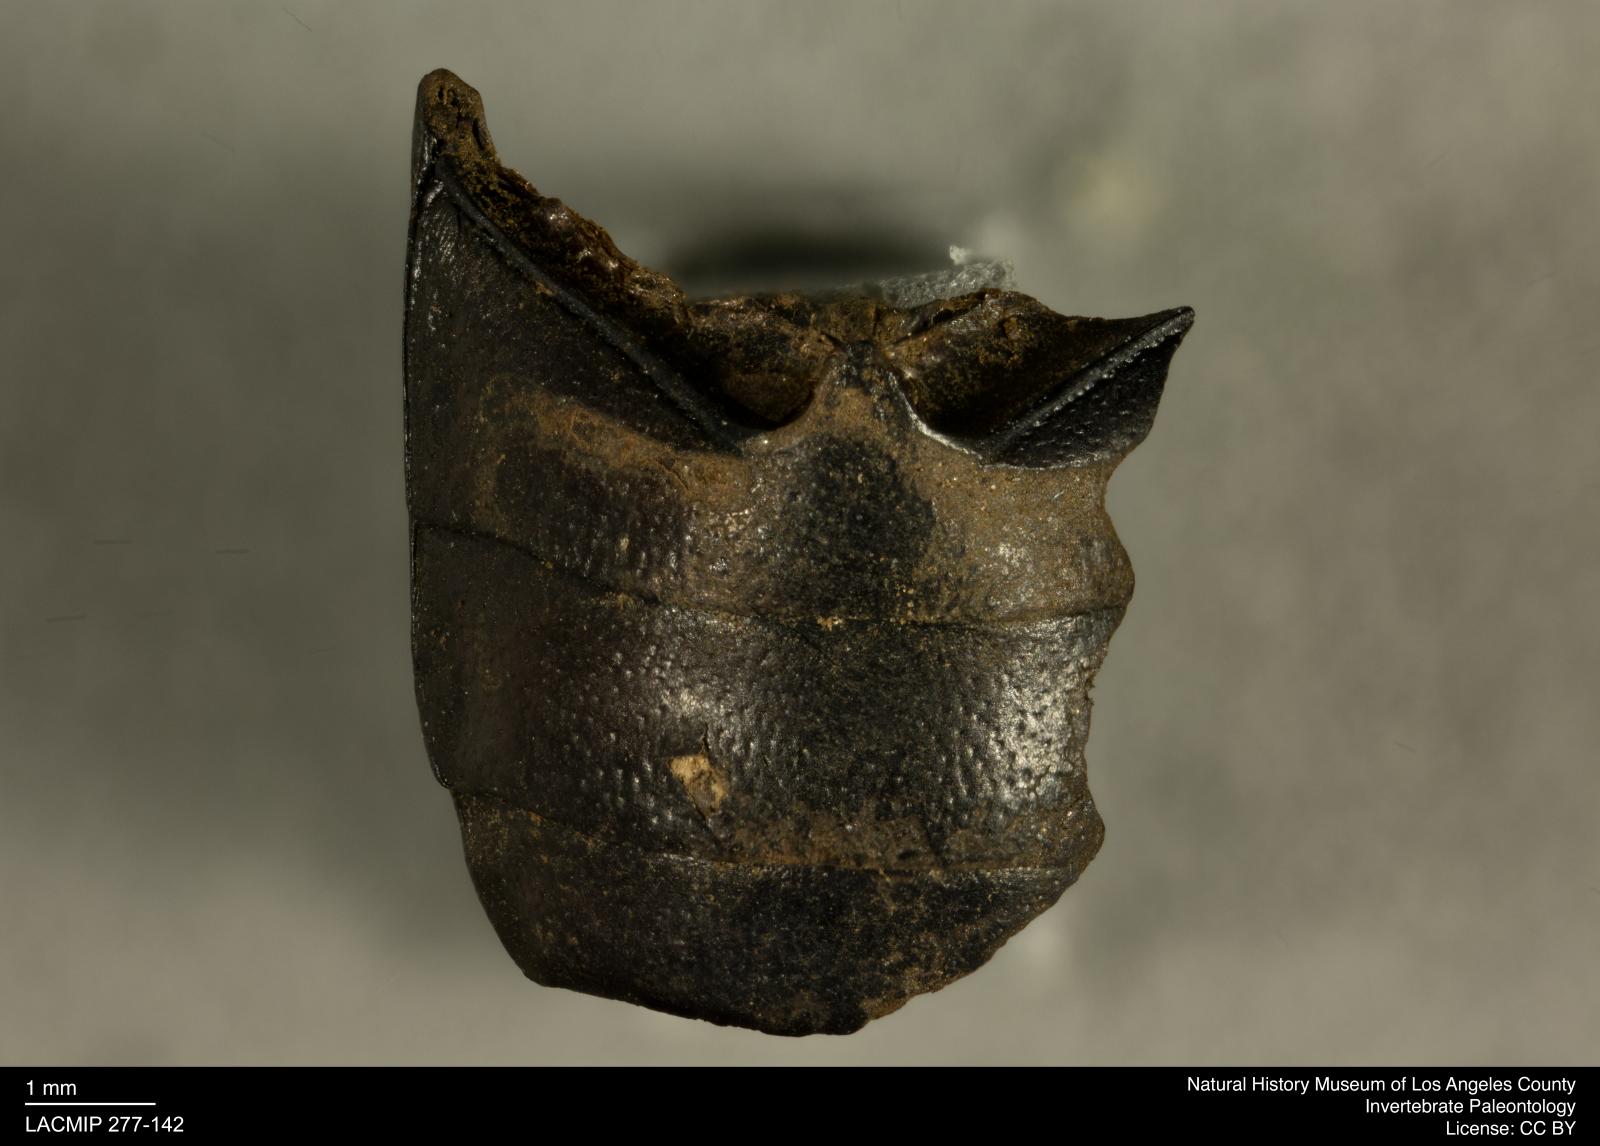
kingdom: Animalia
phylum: Arthropoda
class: Insecta
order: Coleoptera
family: Tenebrionidae
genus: Coniontis
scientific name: Coniontis abdominalis
